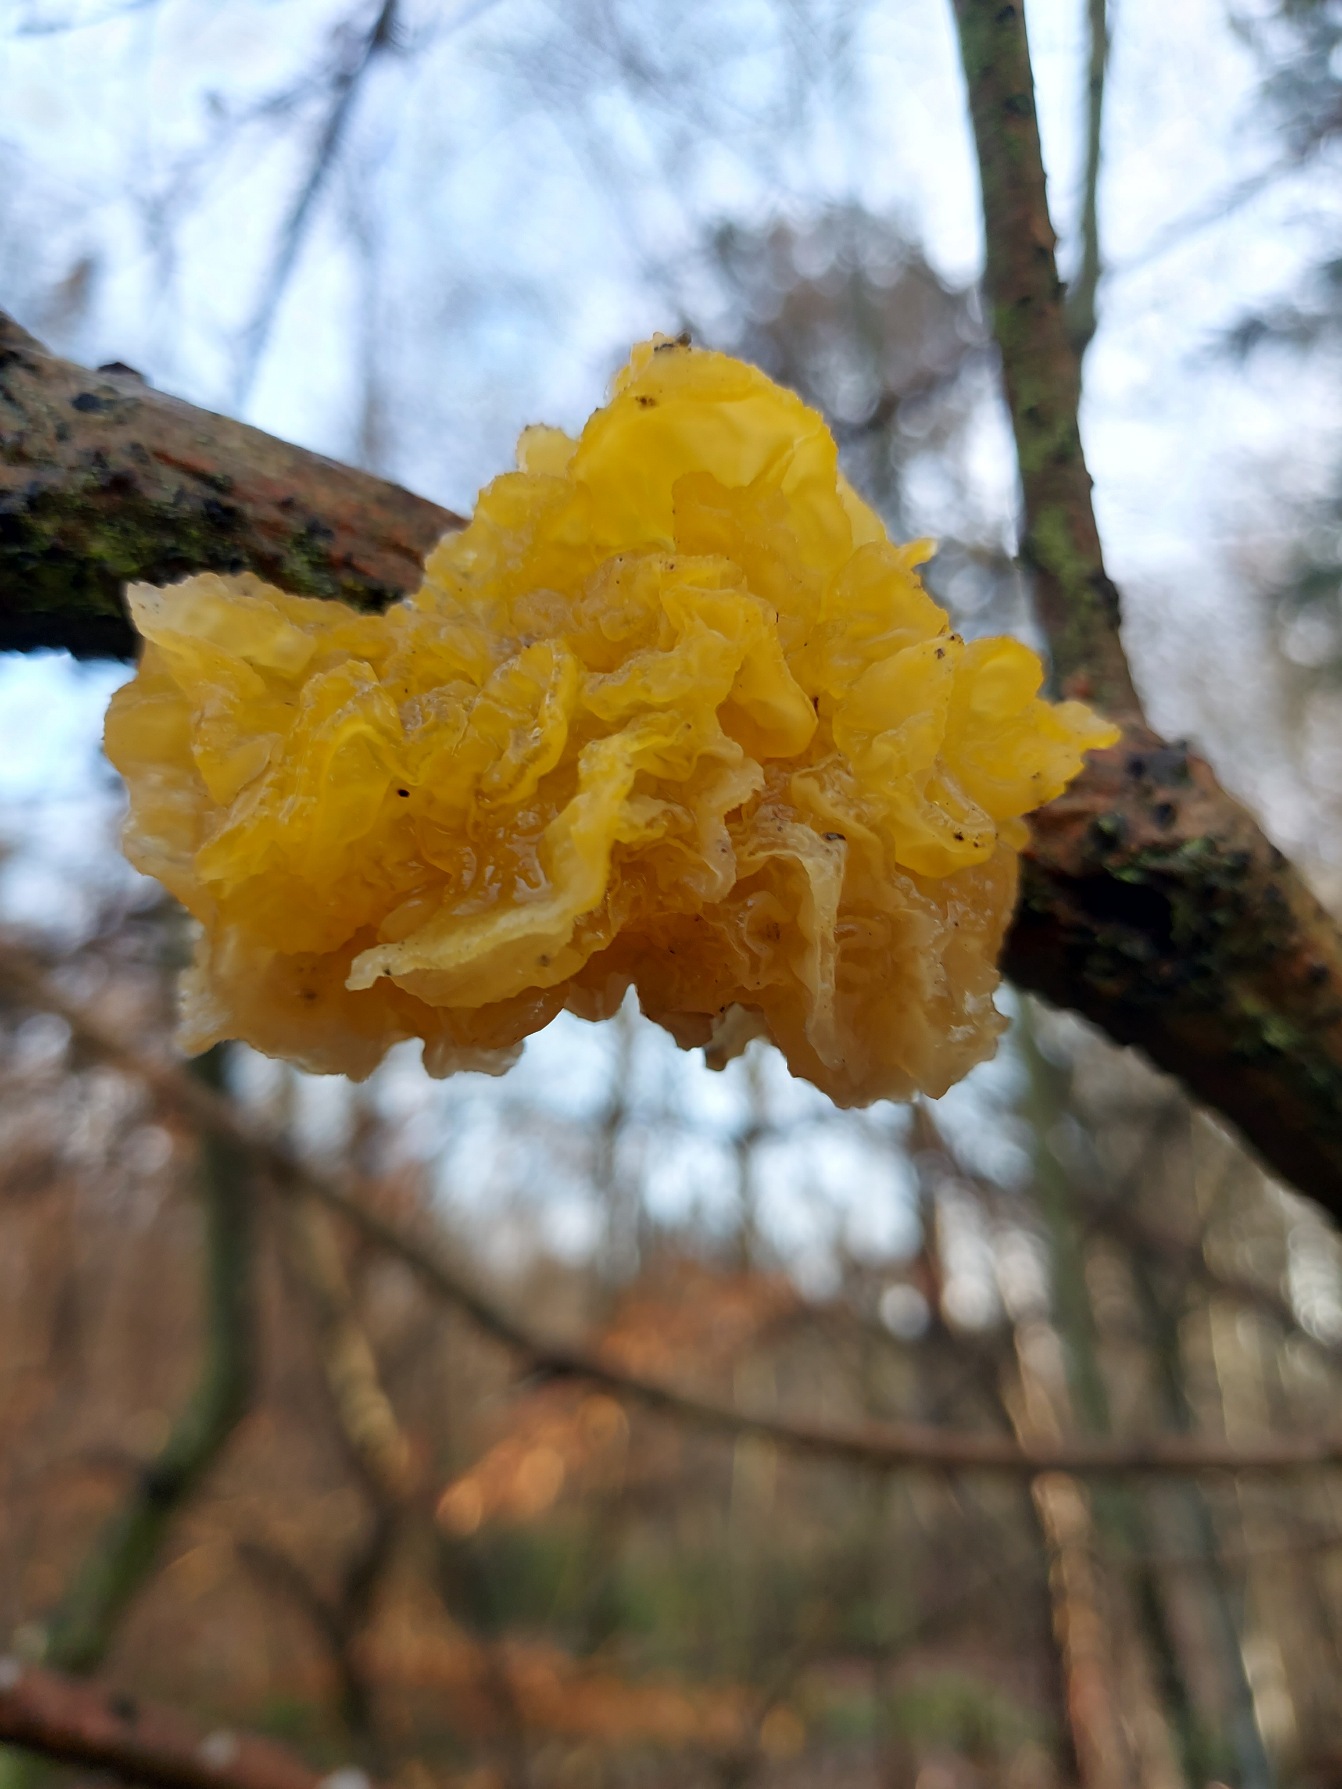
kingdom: Fungi
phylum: Basidiomycota
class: Tremellomycetes
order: Tremellales
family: Tremellaceae
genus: Tremella
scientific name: Tremella mesenterica
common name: Gul bævresvamp
